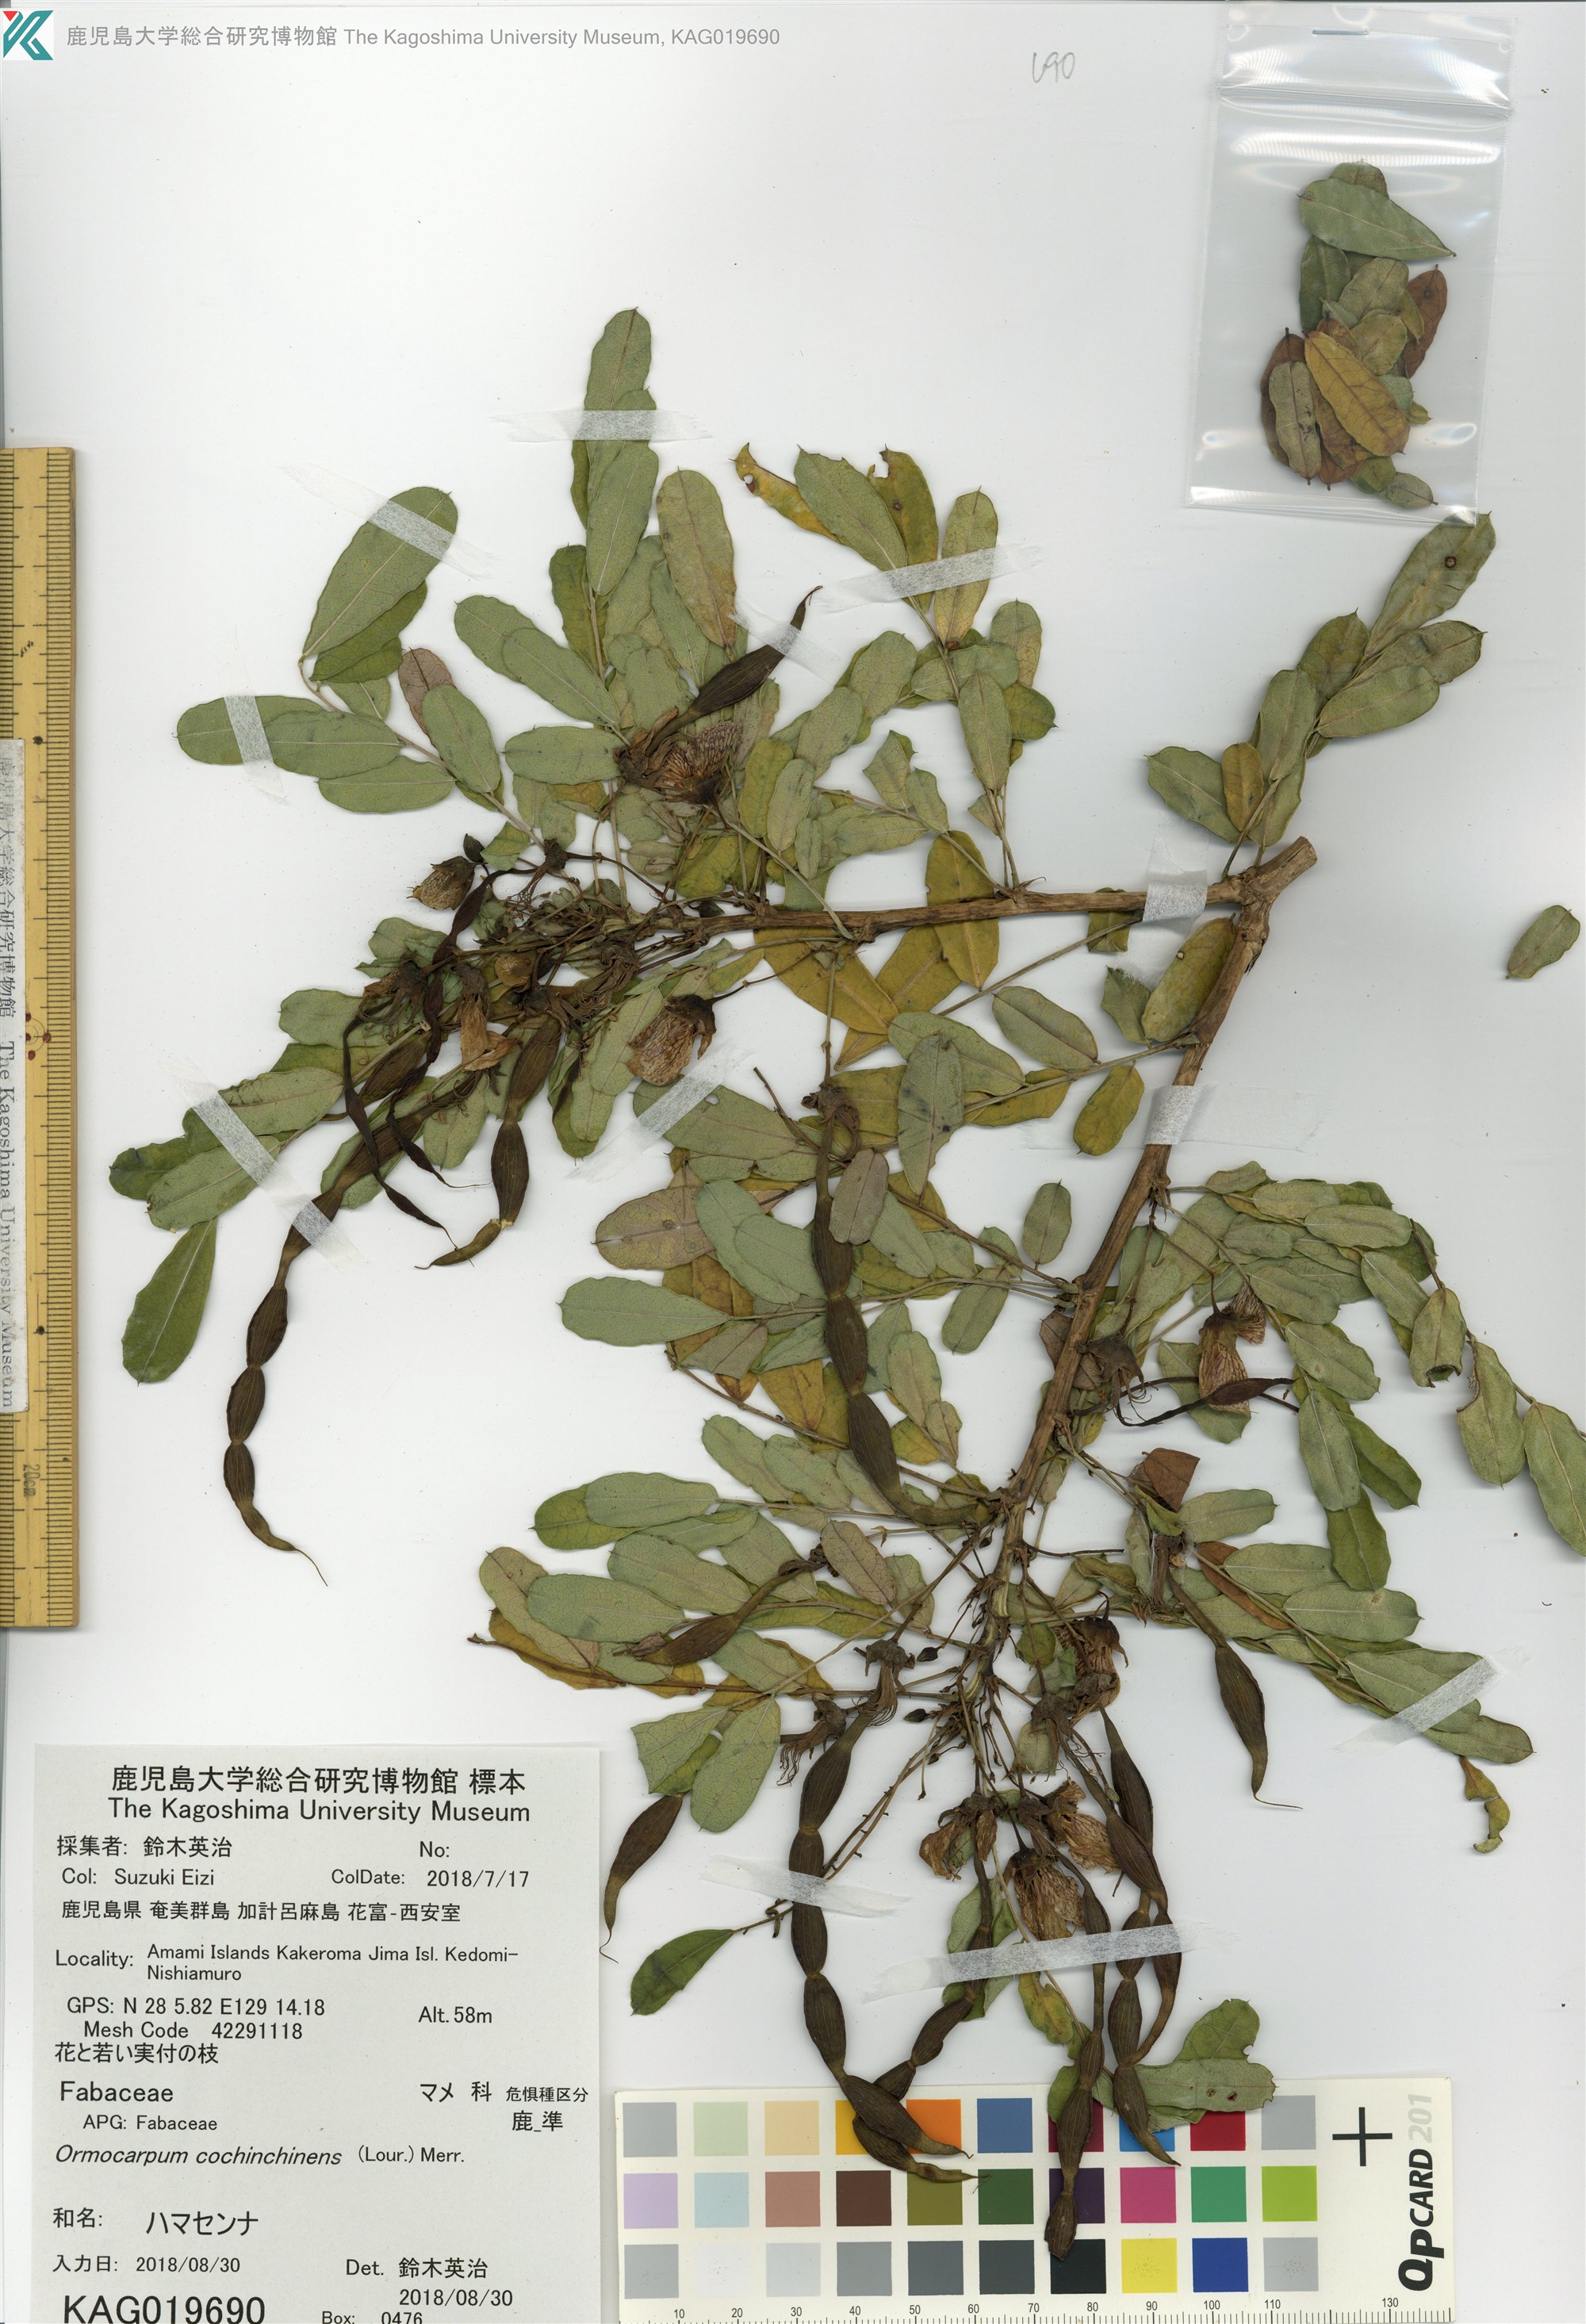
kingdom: Plantae
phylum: Tracheophyta
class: Magnoliopsida
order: Fabales
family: Fabaceae
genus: Ormocarpum
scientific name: Ormocarpum cochinchinense
